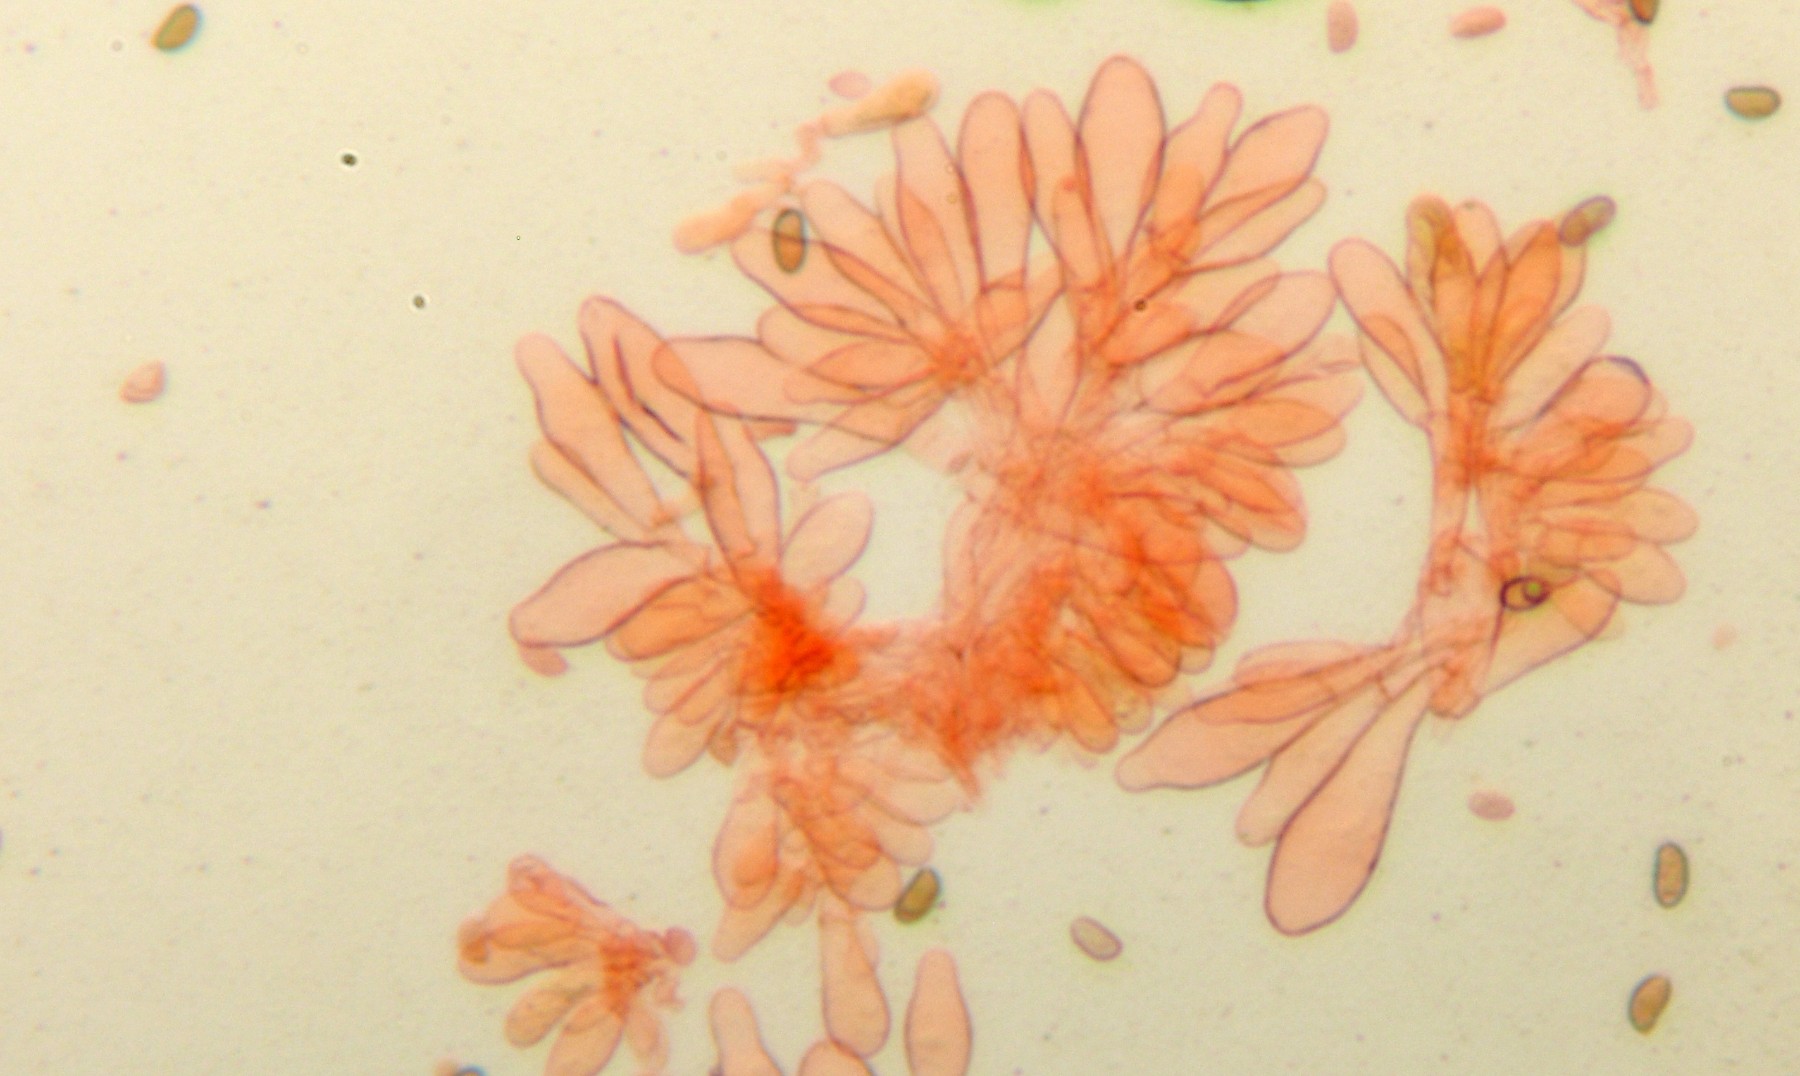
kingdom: Fungi
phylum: Basidiomycota
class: Agaricomycetes
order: Agaricales
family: Inocybaceae
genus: Pseudosperma
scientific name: Pseudosperma
